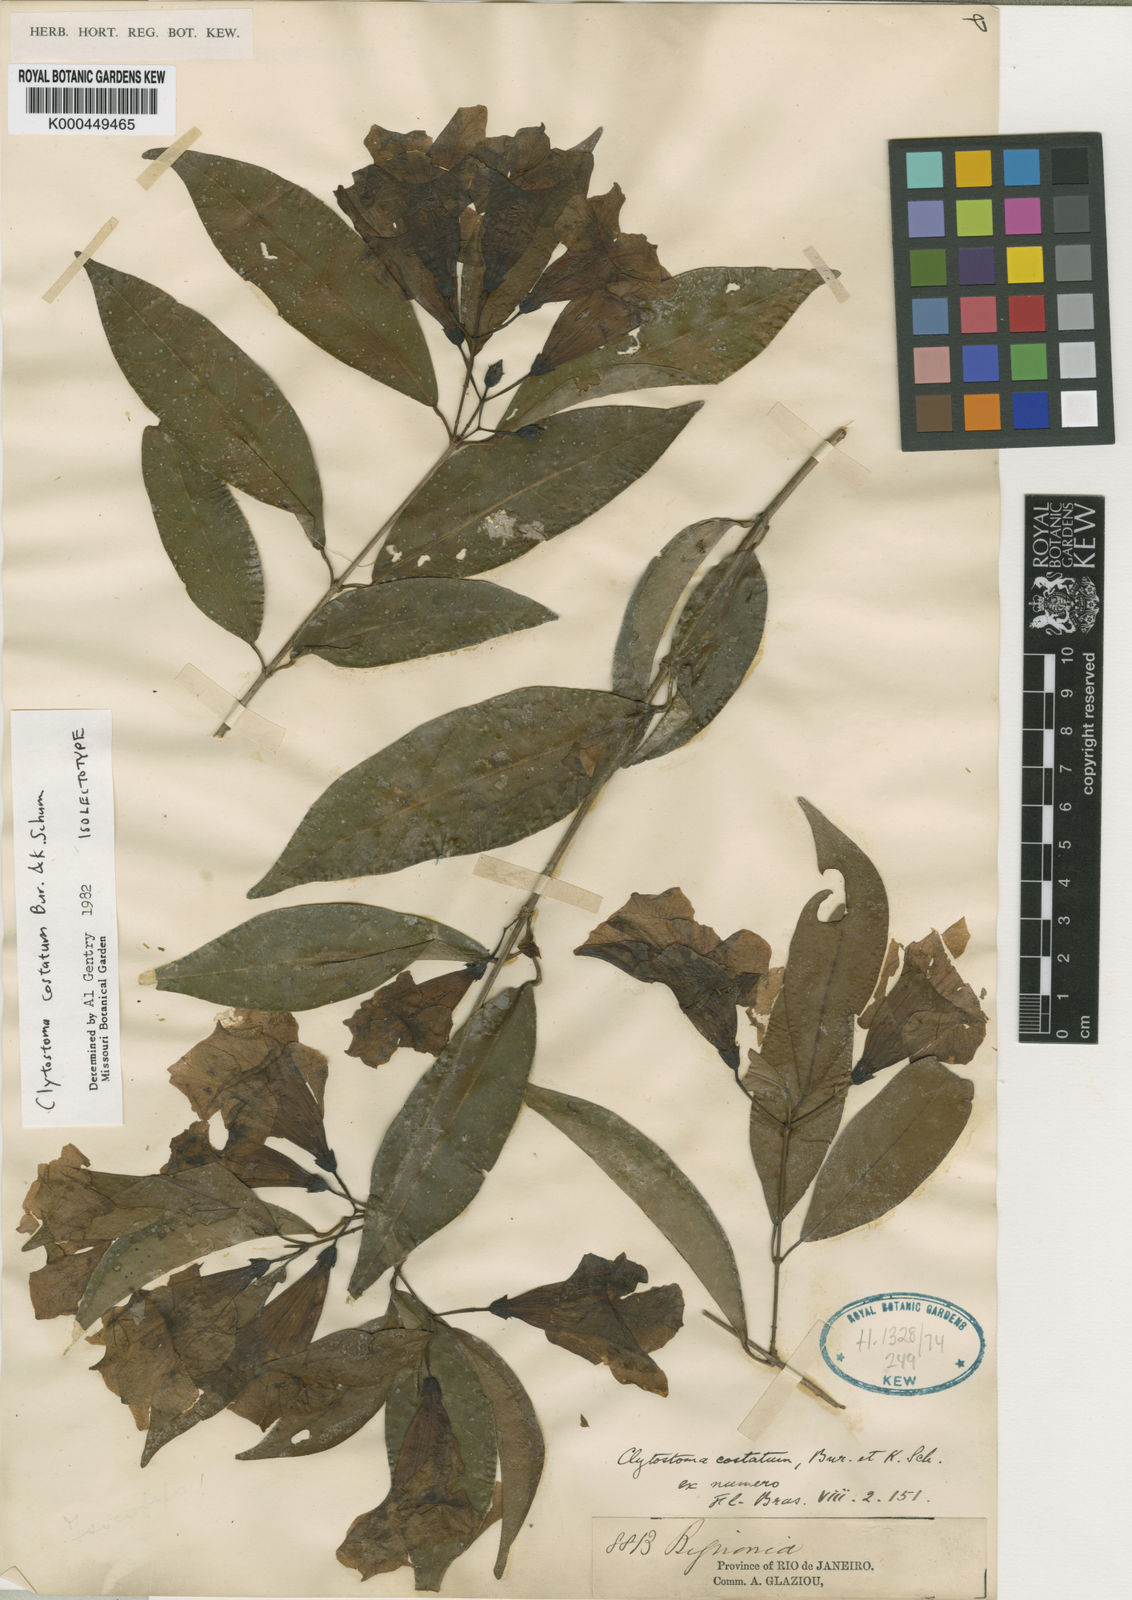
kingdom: Plantae
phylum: Tracheophyta
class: Magnoliopsida
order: Lamiales
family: Bignoniaceae
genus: Bignonia
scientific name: Bignonia costata
